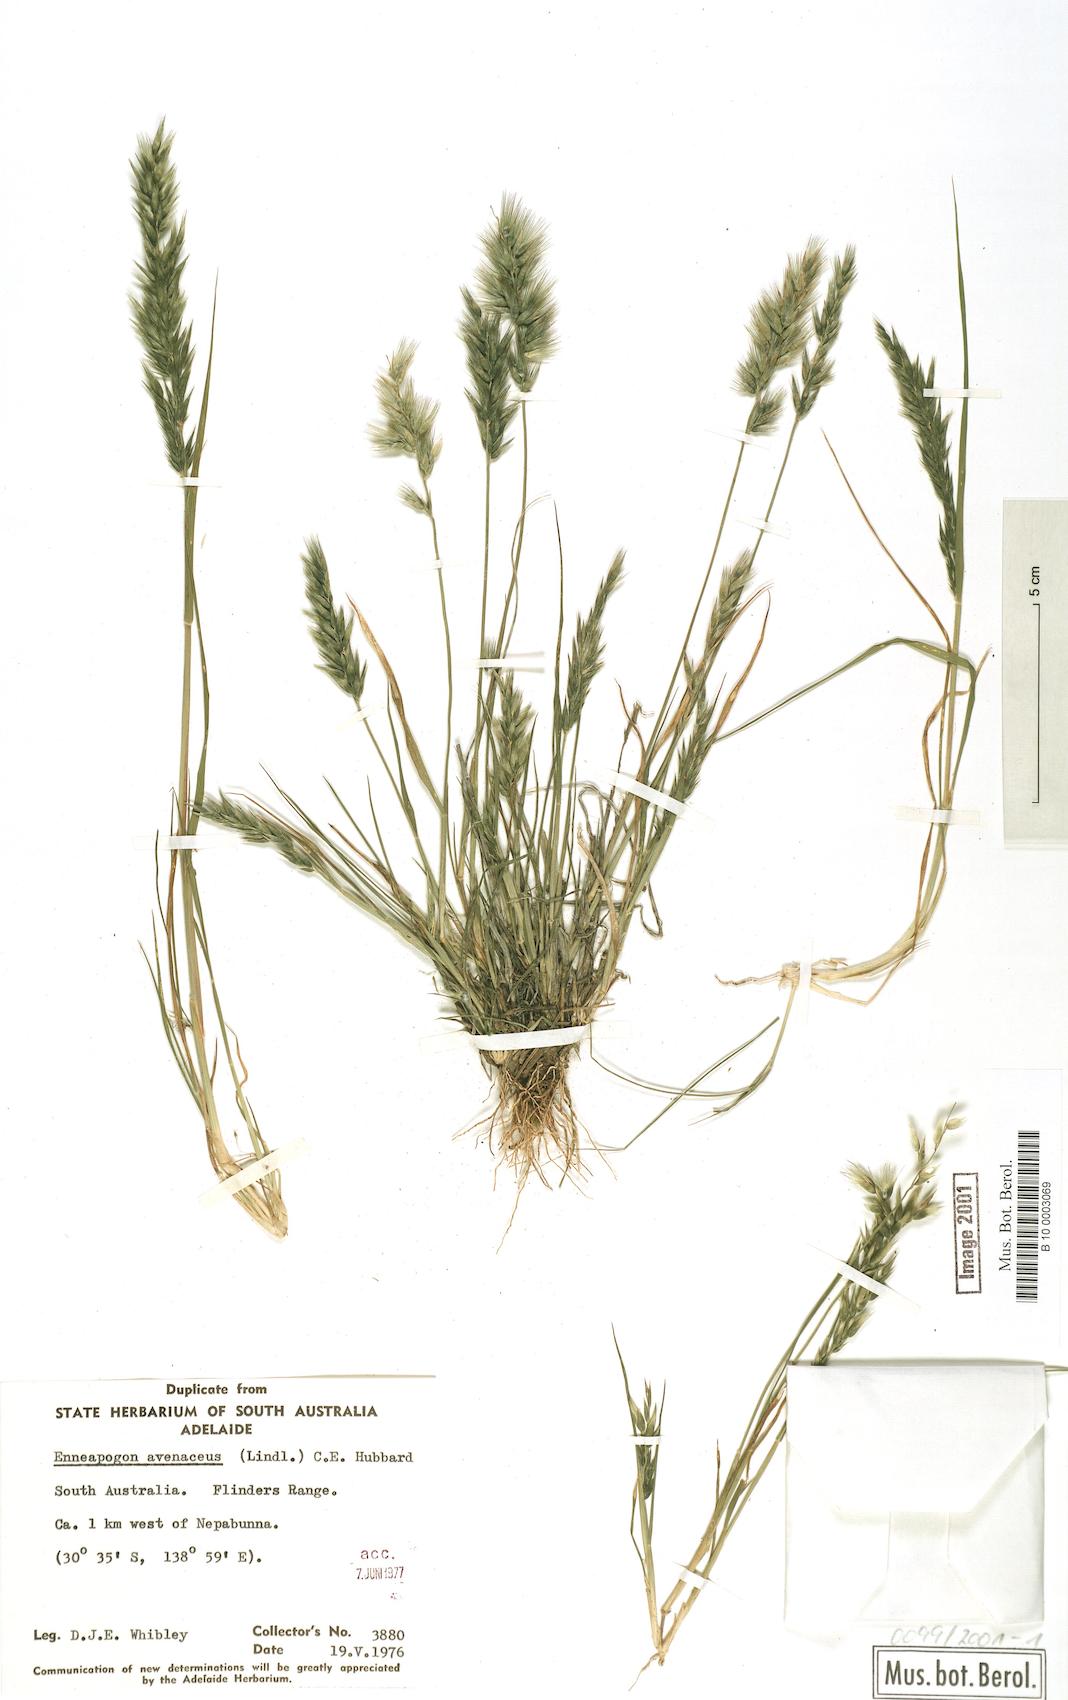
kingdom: Plantae
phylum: Tracheophyta
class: Liliopsida
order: Poales
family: Poaceae
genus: Enneapogon
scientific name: Enneapogon avenaceus
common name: Hairy oat grass
